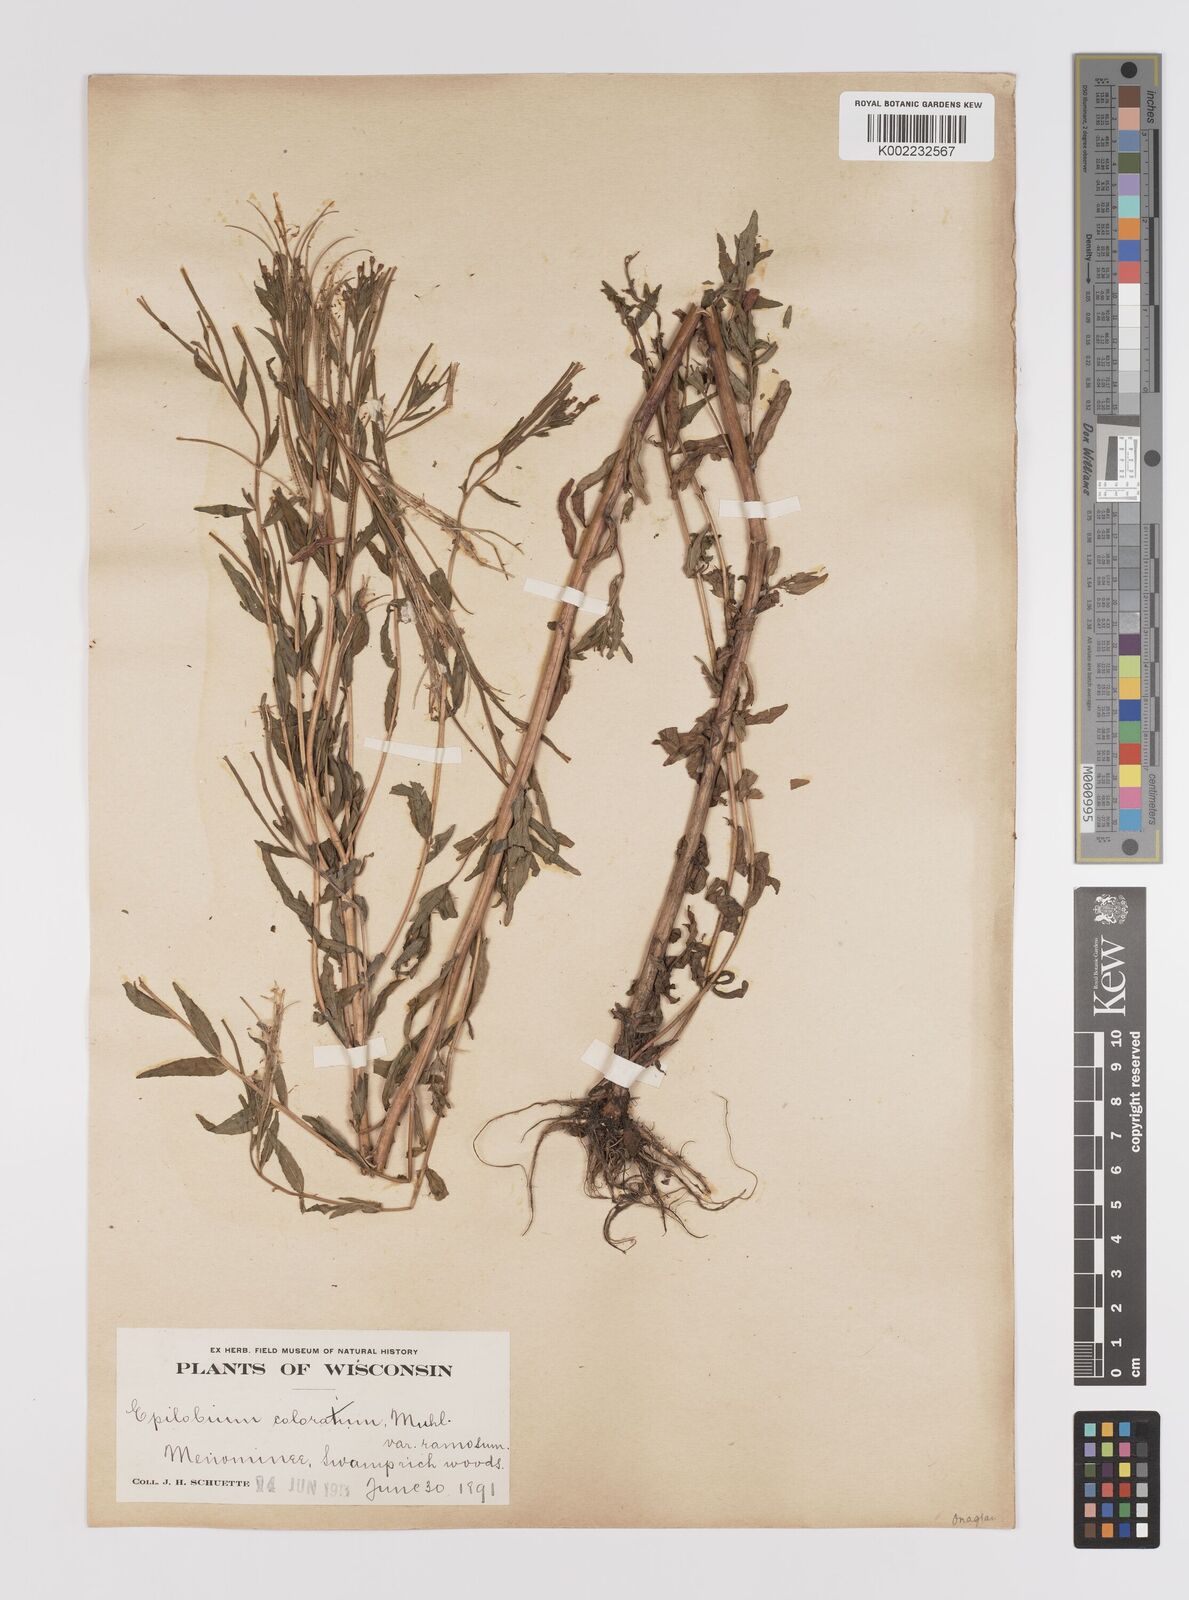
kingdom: Plantae
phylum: Tracheophyta
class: Magnoliopsida
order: Myrtales
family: Onagraceae
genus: Epilobium
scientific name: Epilobium coloratum
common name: Bronze willowherb
